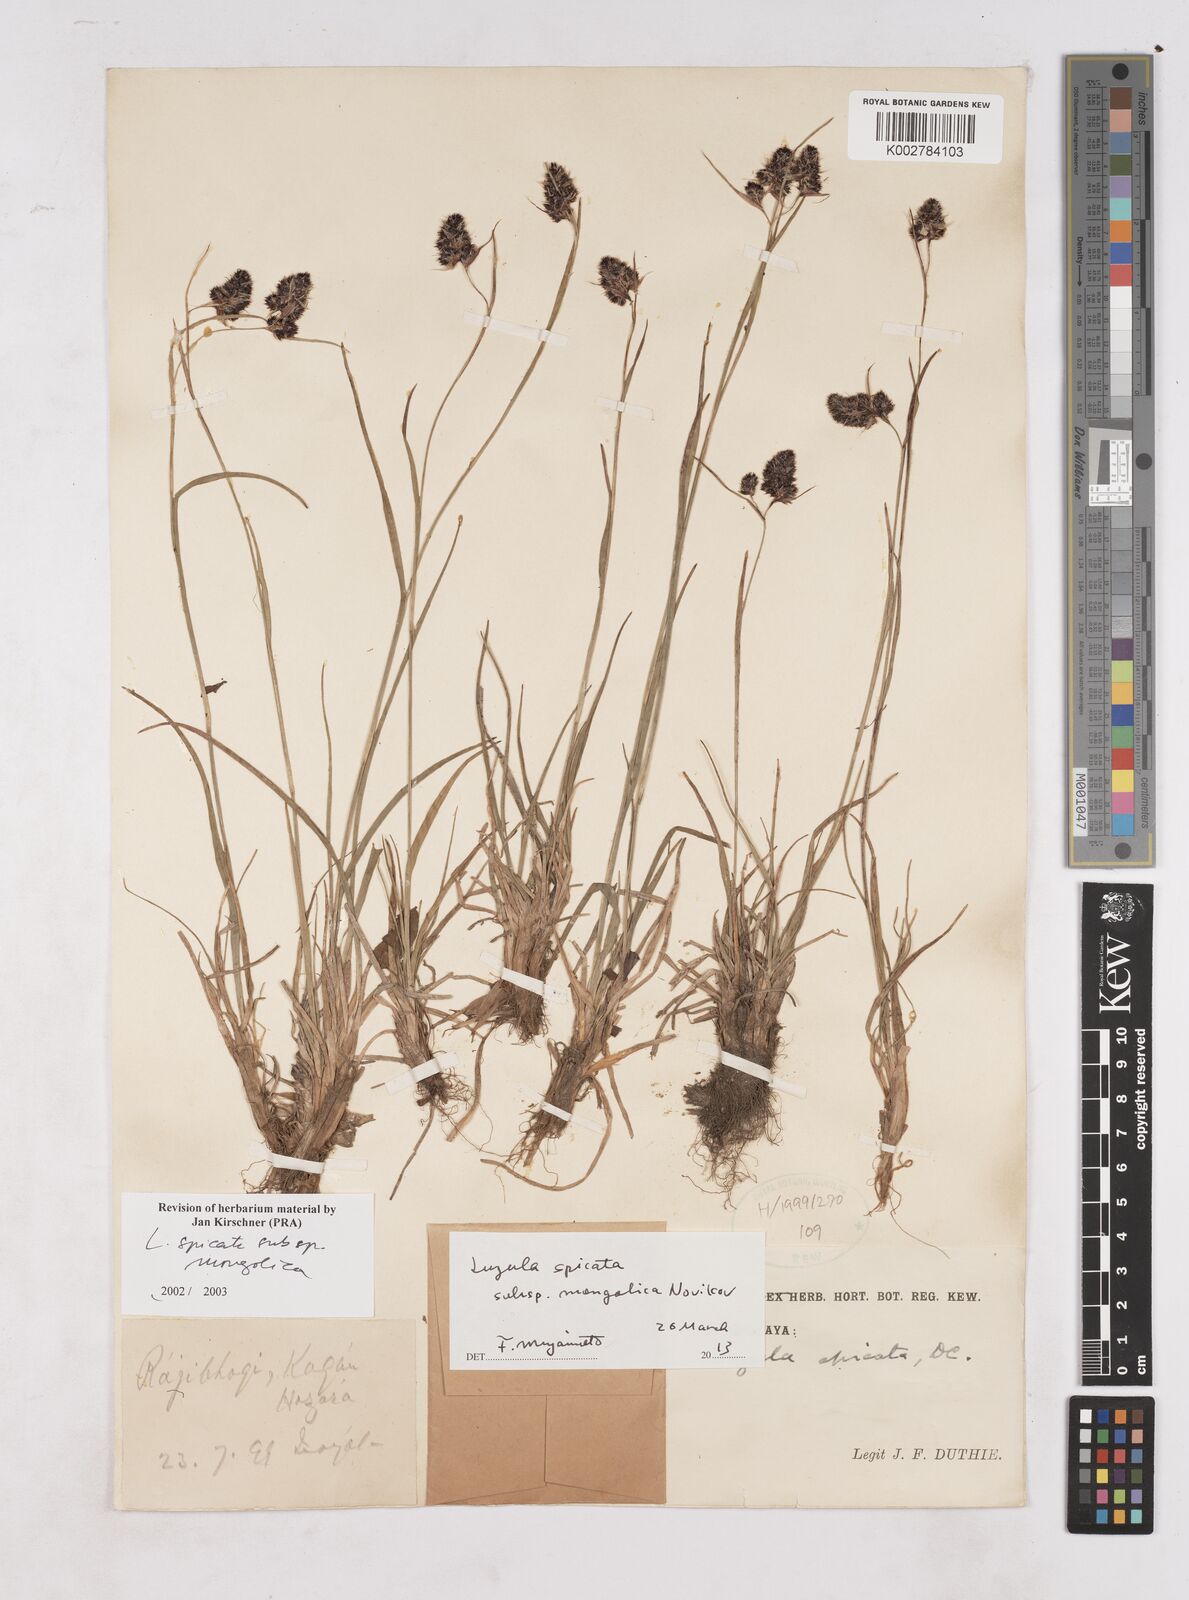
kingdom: Plantae
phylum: Tracheophyta
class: Liliopsida
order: Poales
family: Juncaceae
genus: Luzula
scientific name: Luzula spicata
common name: Spiked wood-rush
